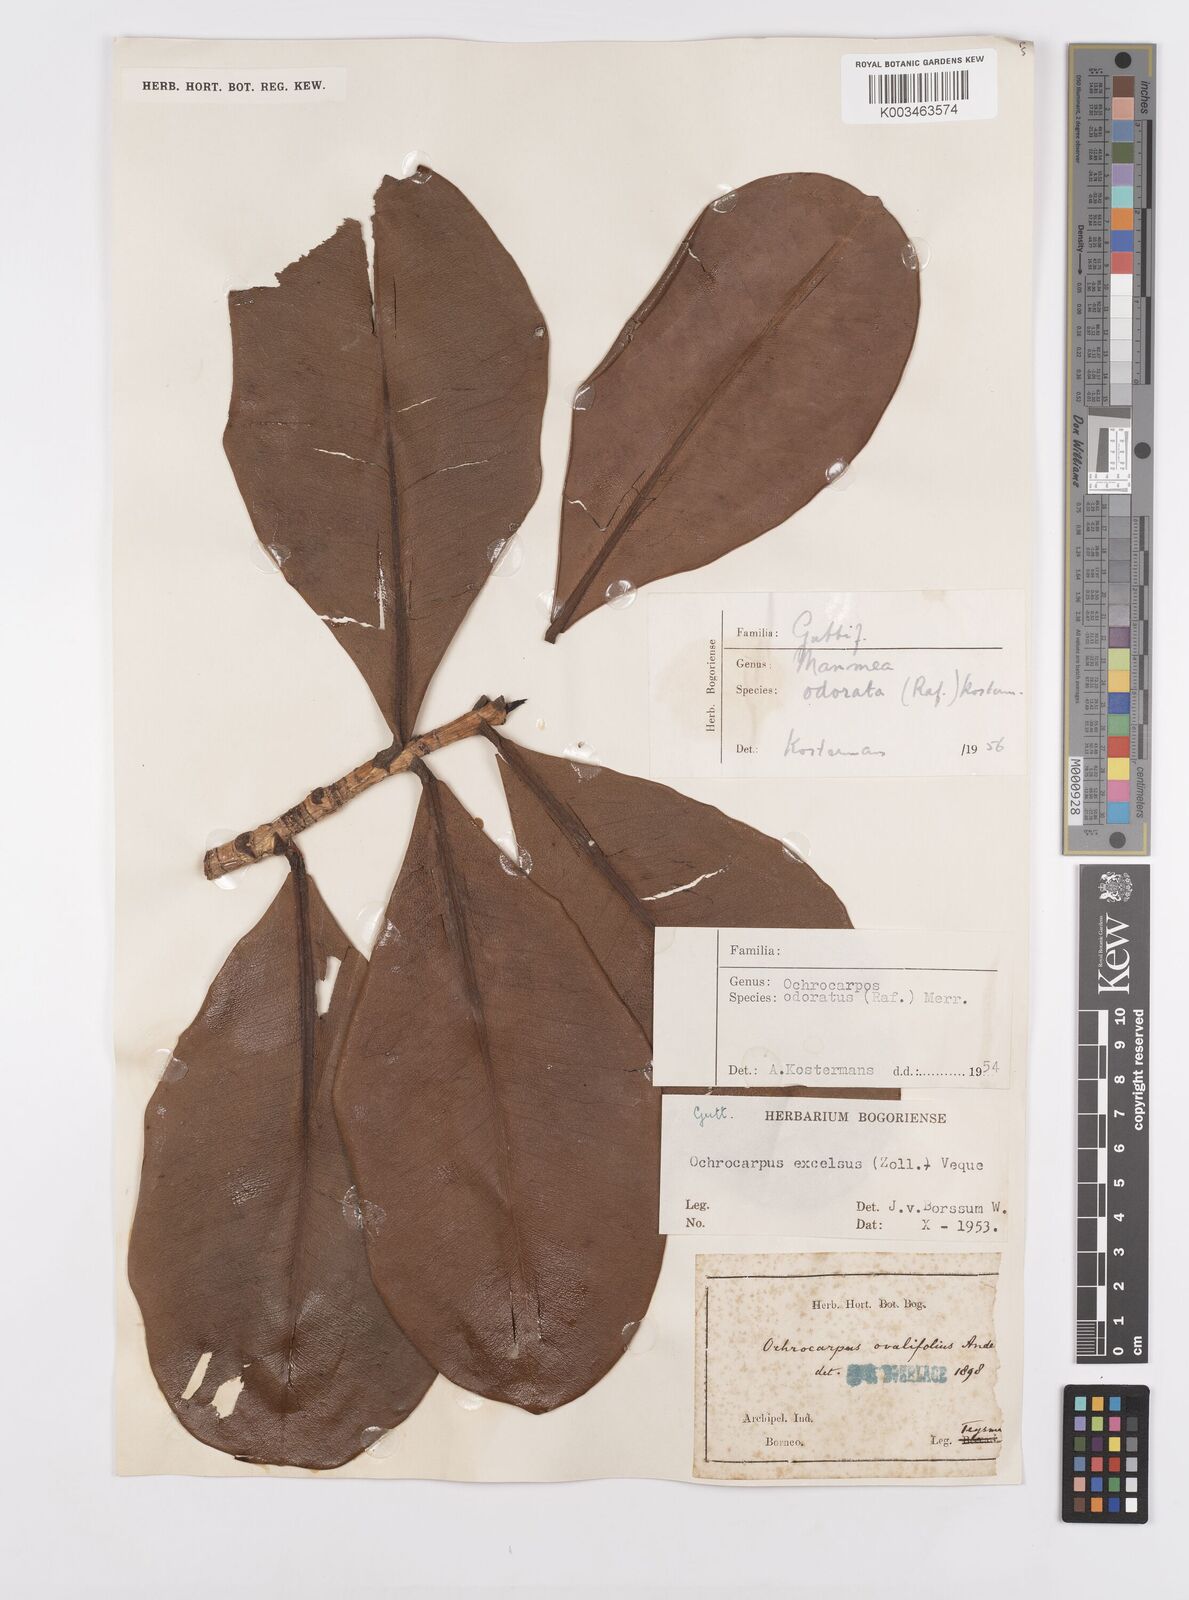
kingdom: Plantae
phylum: Tracheophyta
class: Magnoliopsida
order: Malpighiales
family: Calophyllaceae
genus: Mammea
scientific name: Mammea odorata
